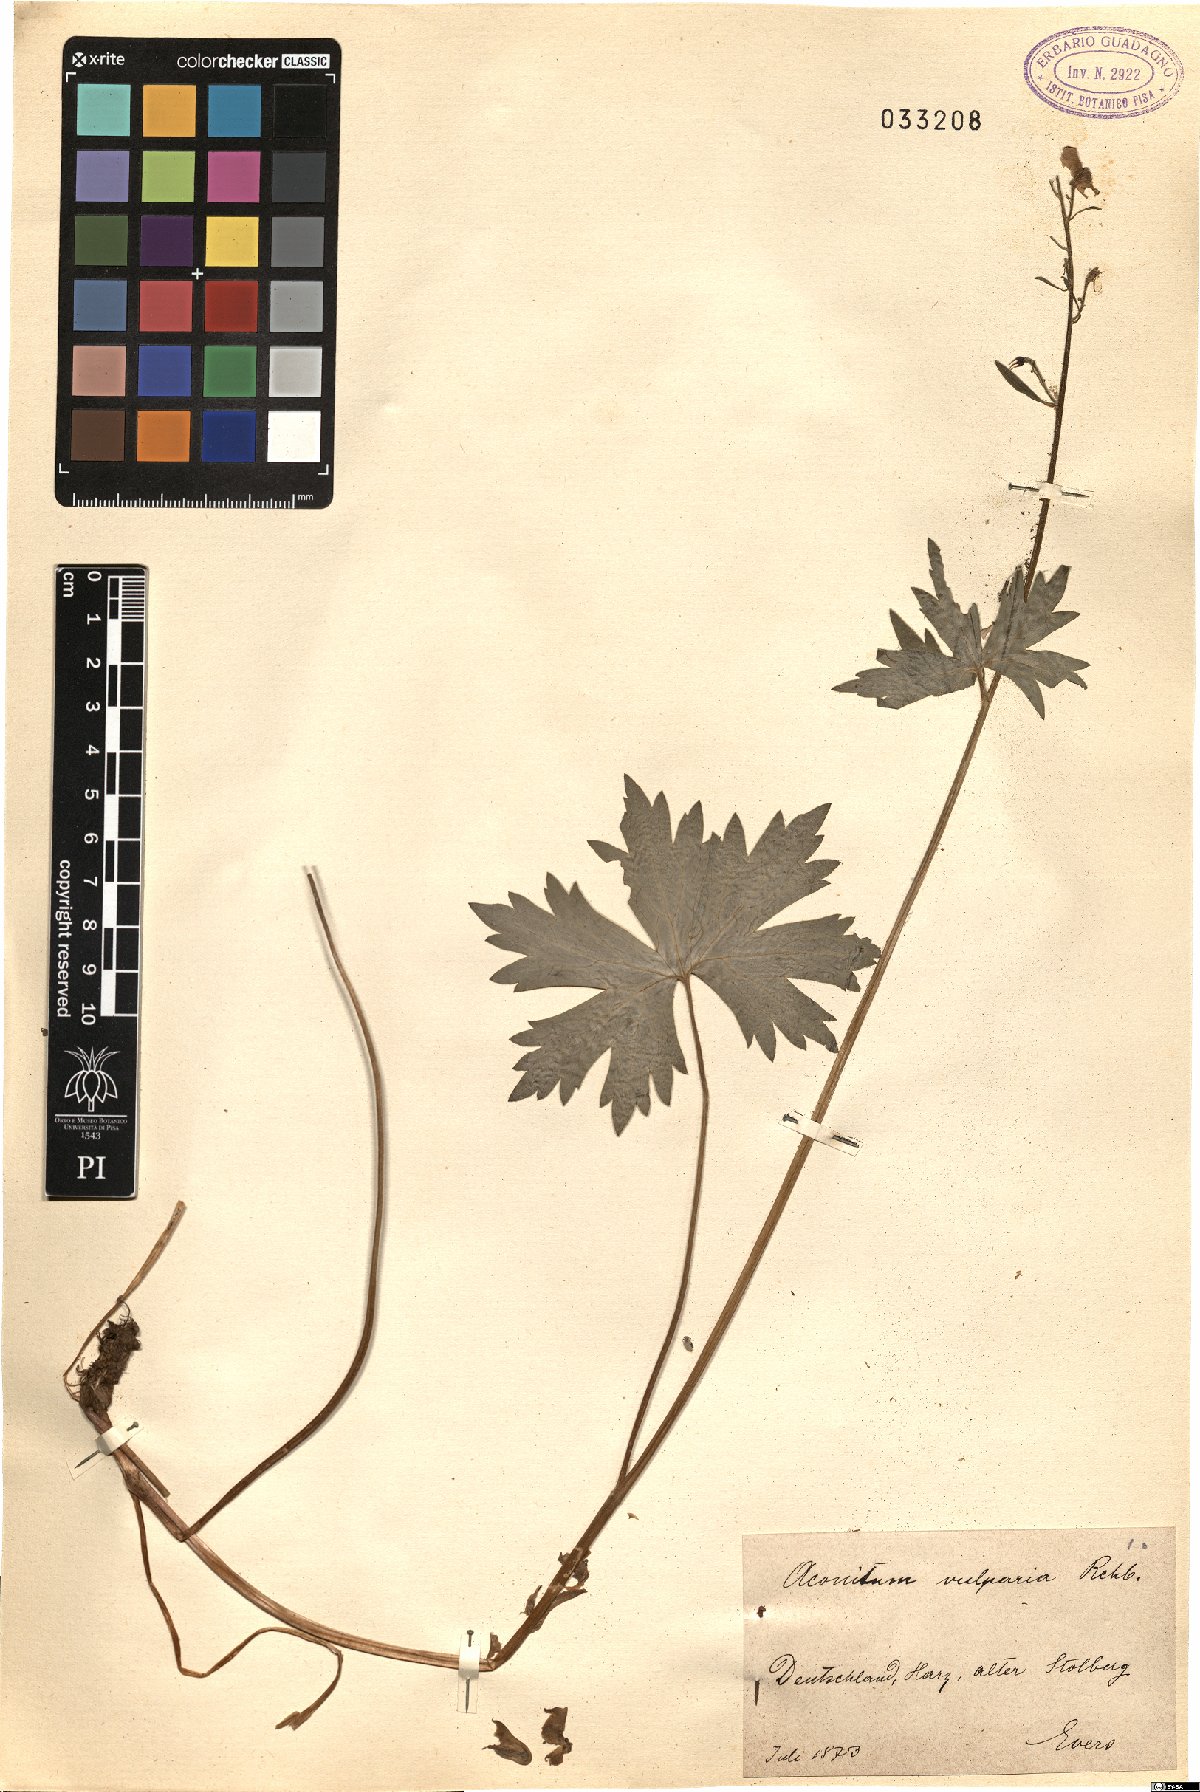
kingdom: Plantae
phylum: Tracheophyta
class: Magnoliopsida
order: Ranunculales
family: Ranunculaceae
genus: Aconitum
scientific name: Aconitum lycoctonum
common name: Wolf's-bane
